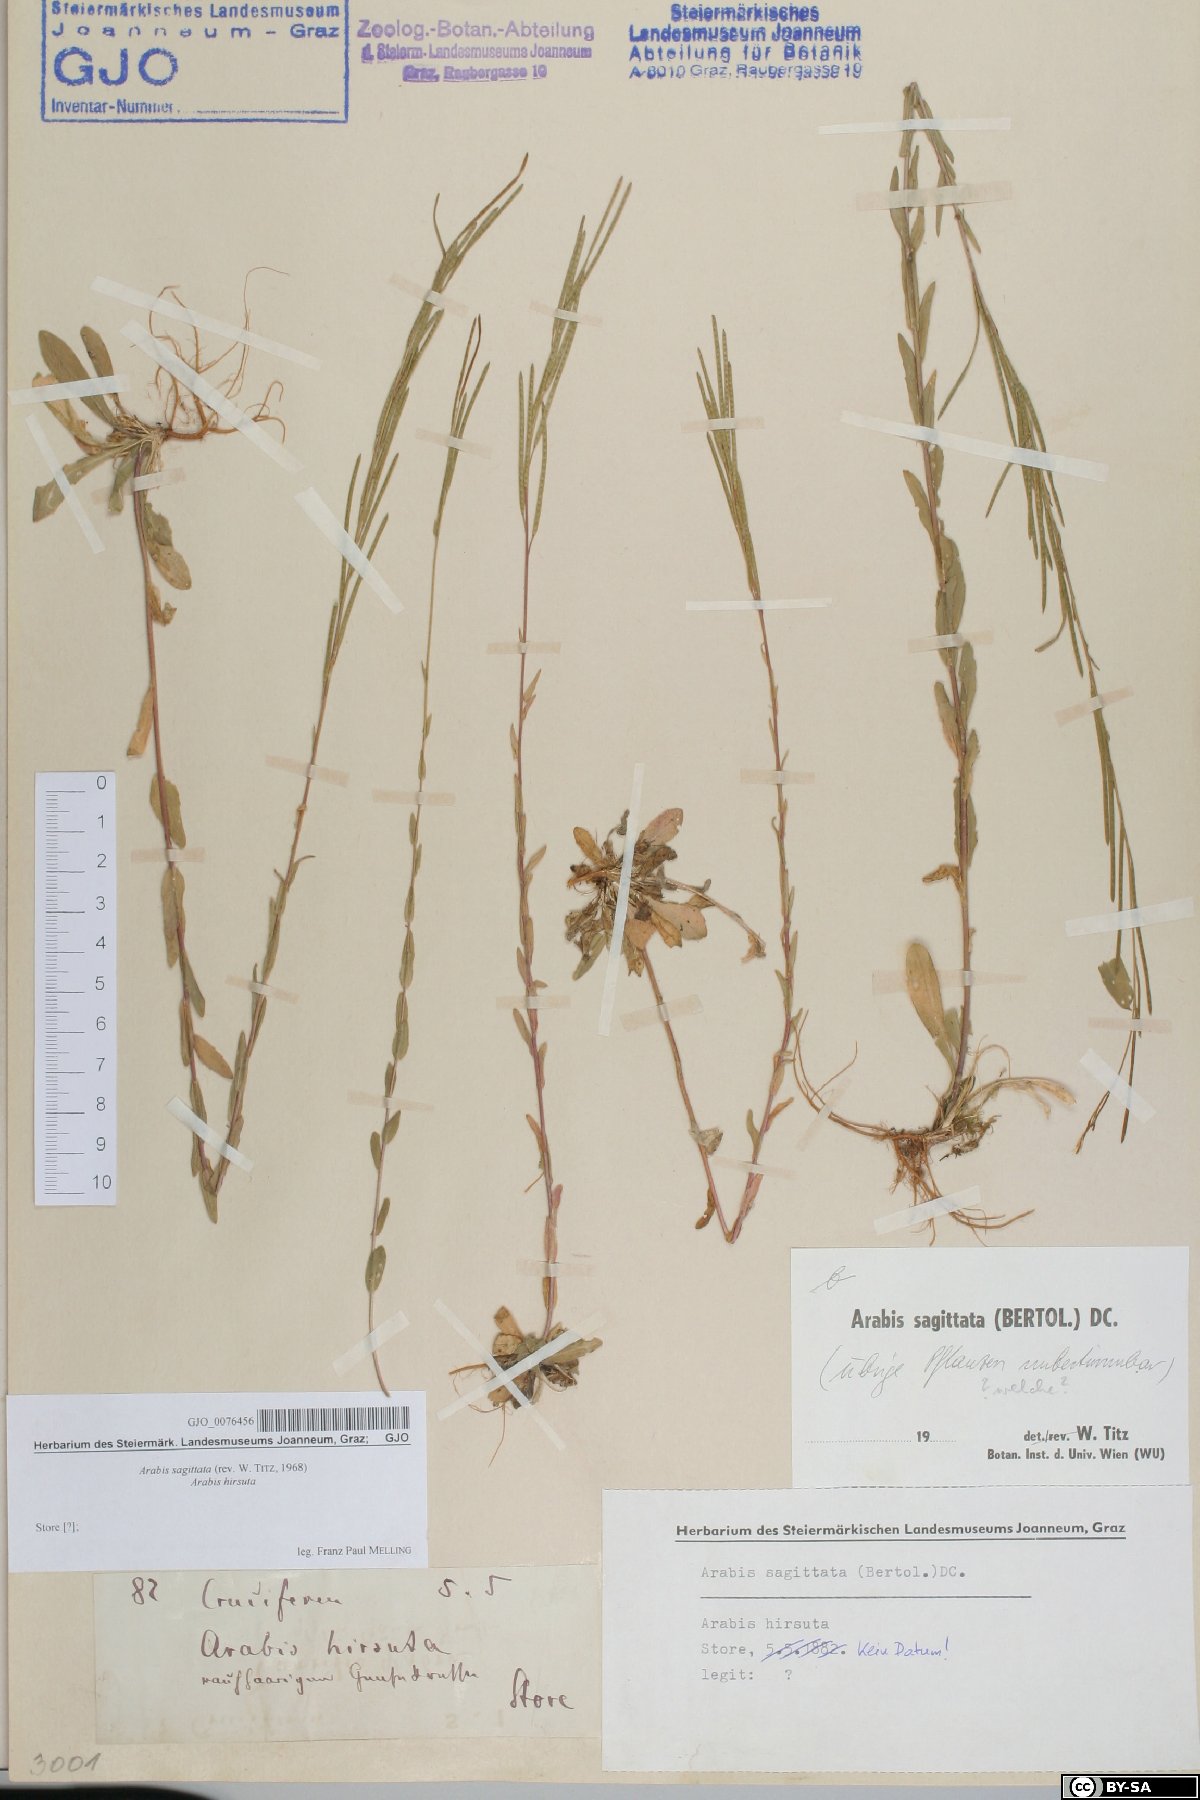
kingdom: Plantae
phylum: Tracheophyta
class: Magnoliopsida
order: Brassicales
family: Brassicaceae
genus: Arabis
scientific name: Arabis sagittata
